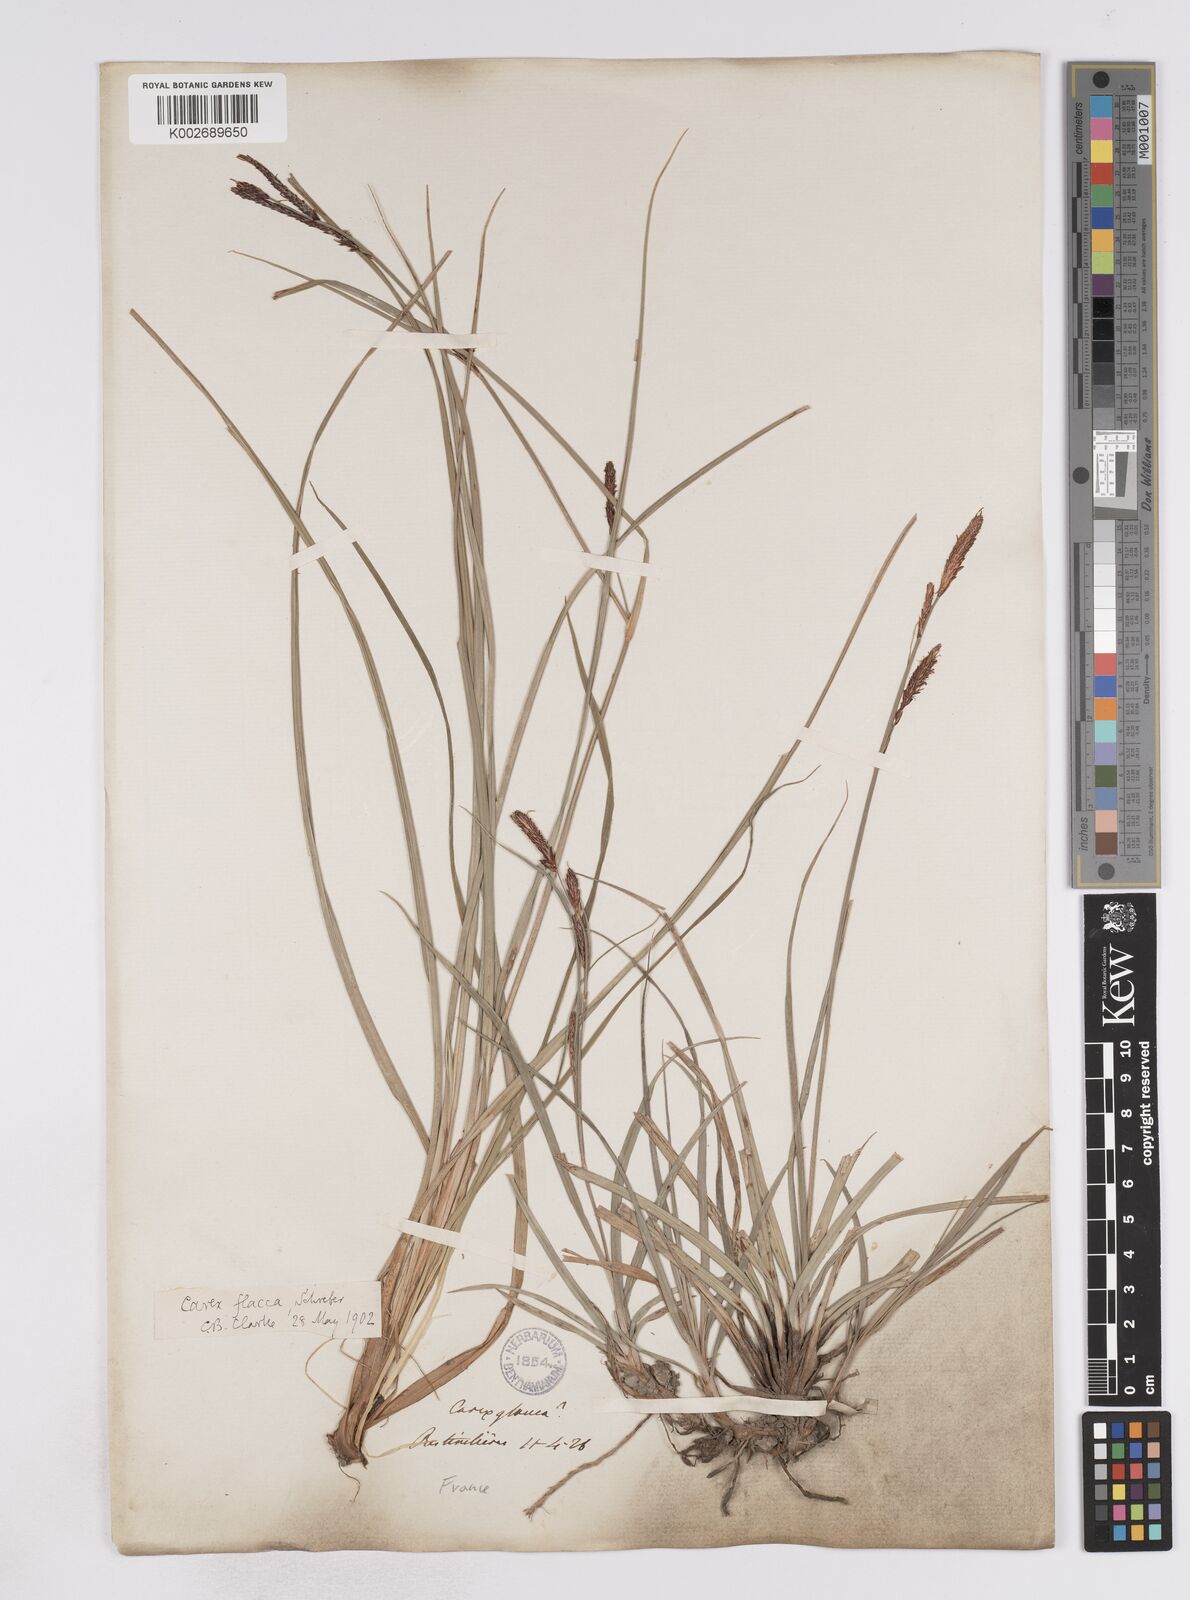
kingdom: Plantae
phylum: Tracheophyta
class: Liliopsida
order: Poales
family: Cyperaceae
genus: Carex
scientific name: Carex flacca
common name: Glaucous sedge
